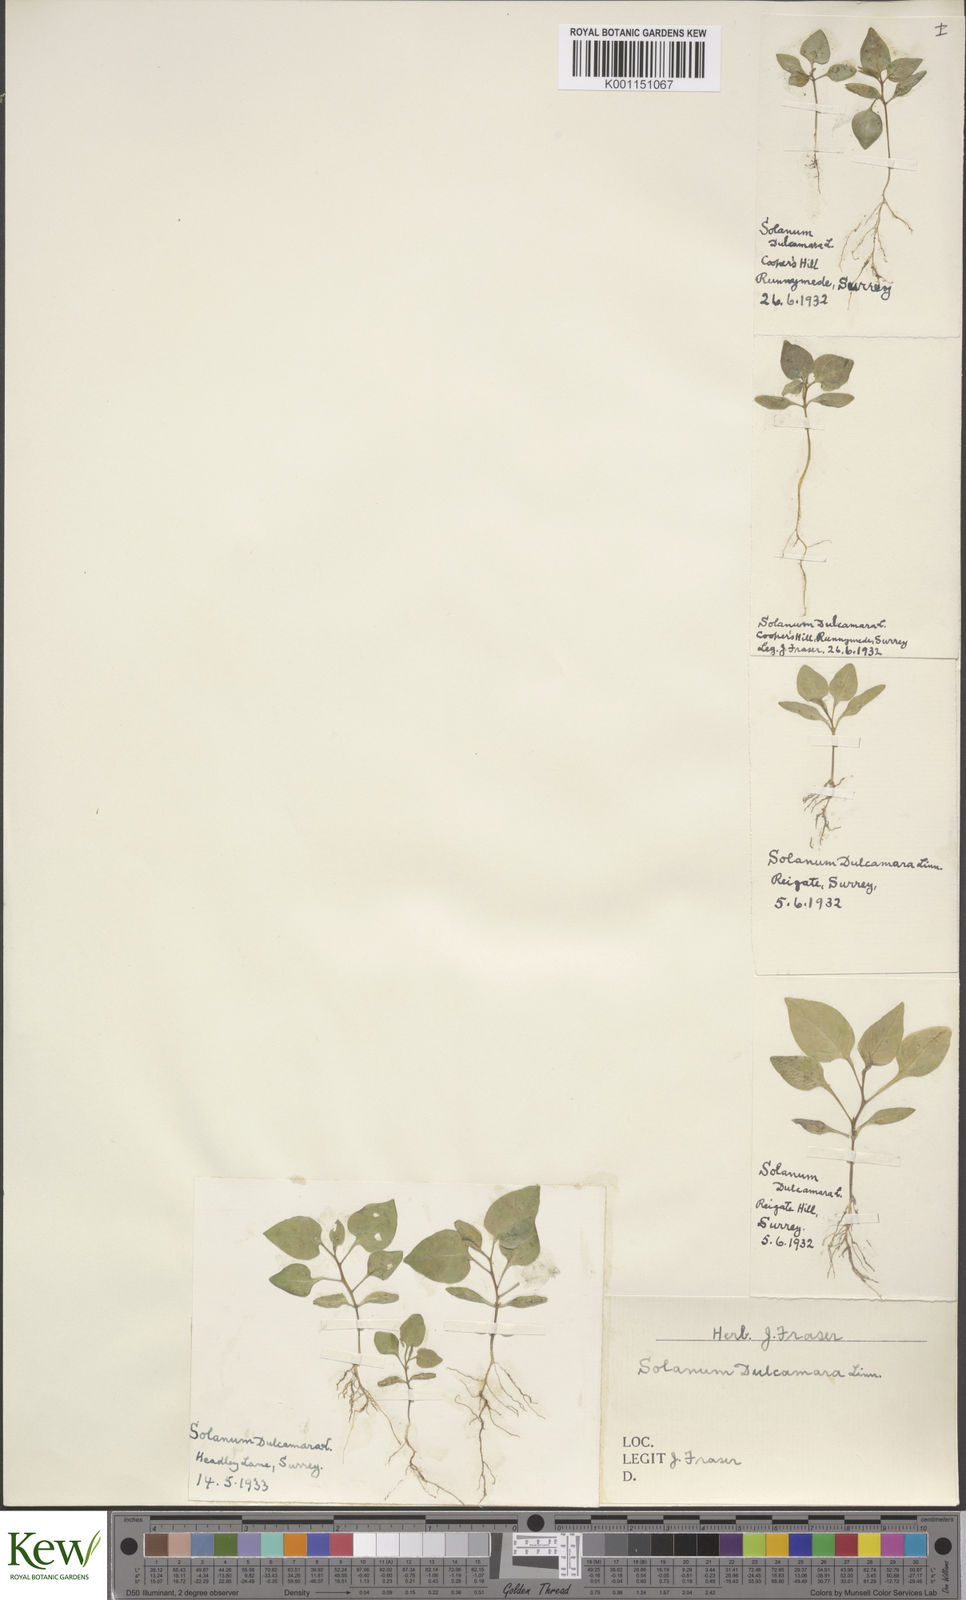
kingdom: Plantae
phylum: Tracheophyta
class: Magnoliopsida
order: Solanales
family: Solanaceae
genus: Solanum
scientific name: Solanum dulcamara
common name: Climbing nightshade
